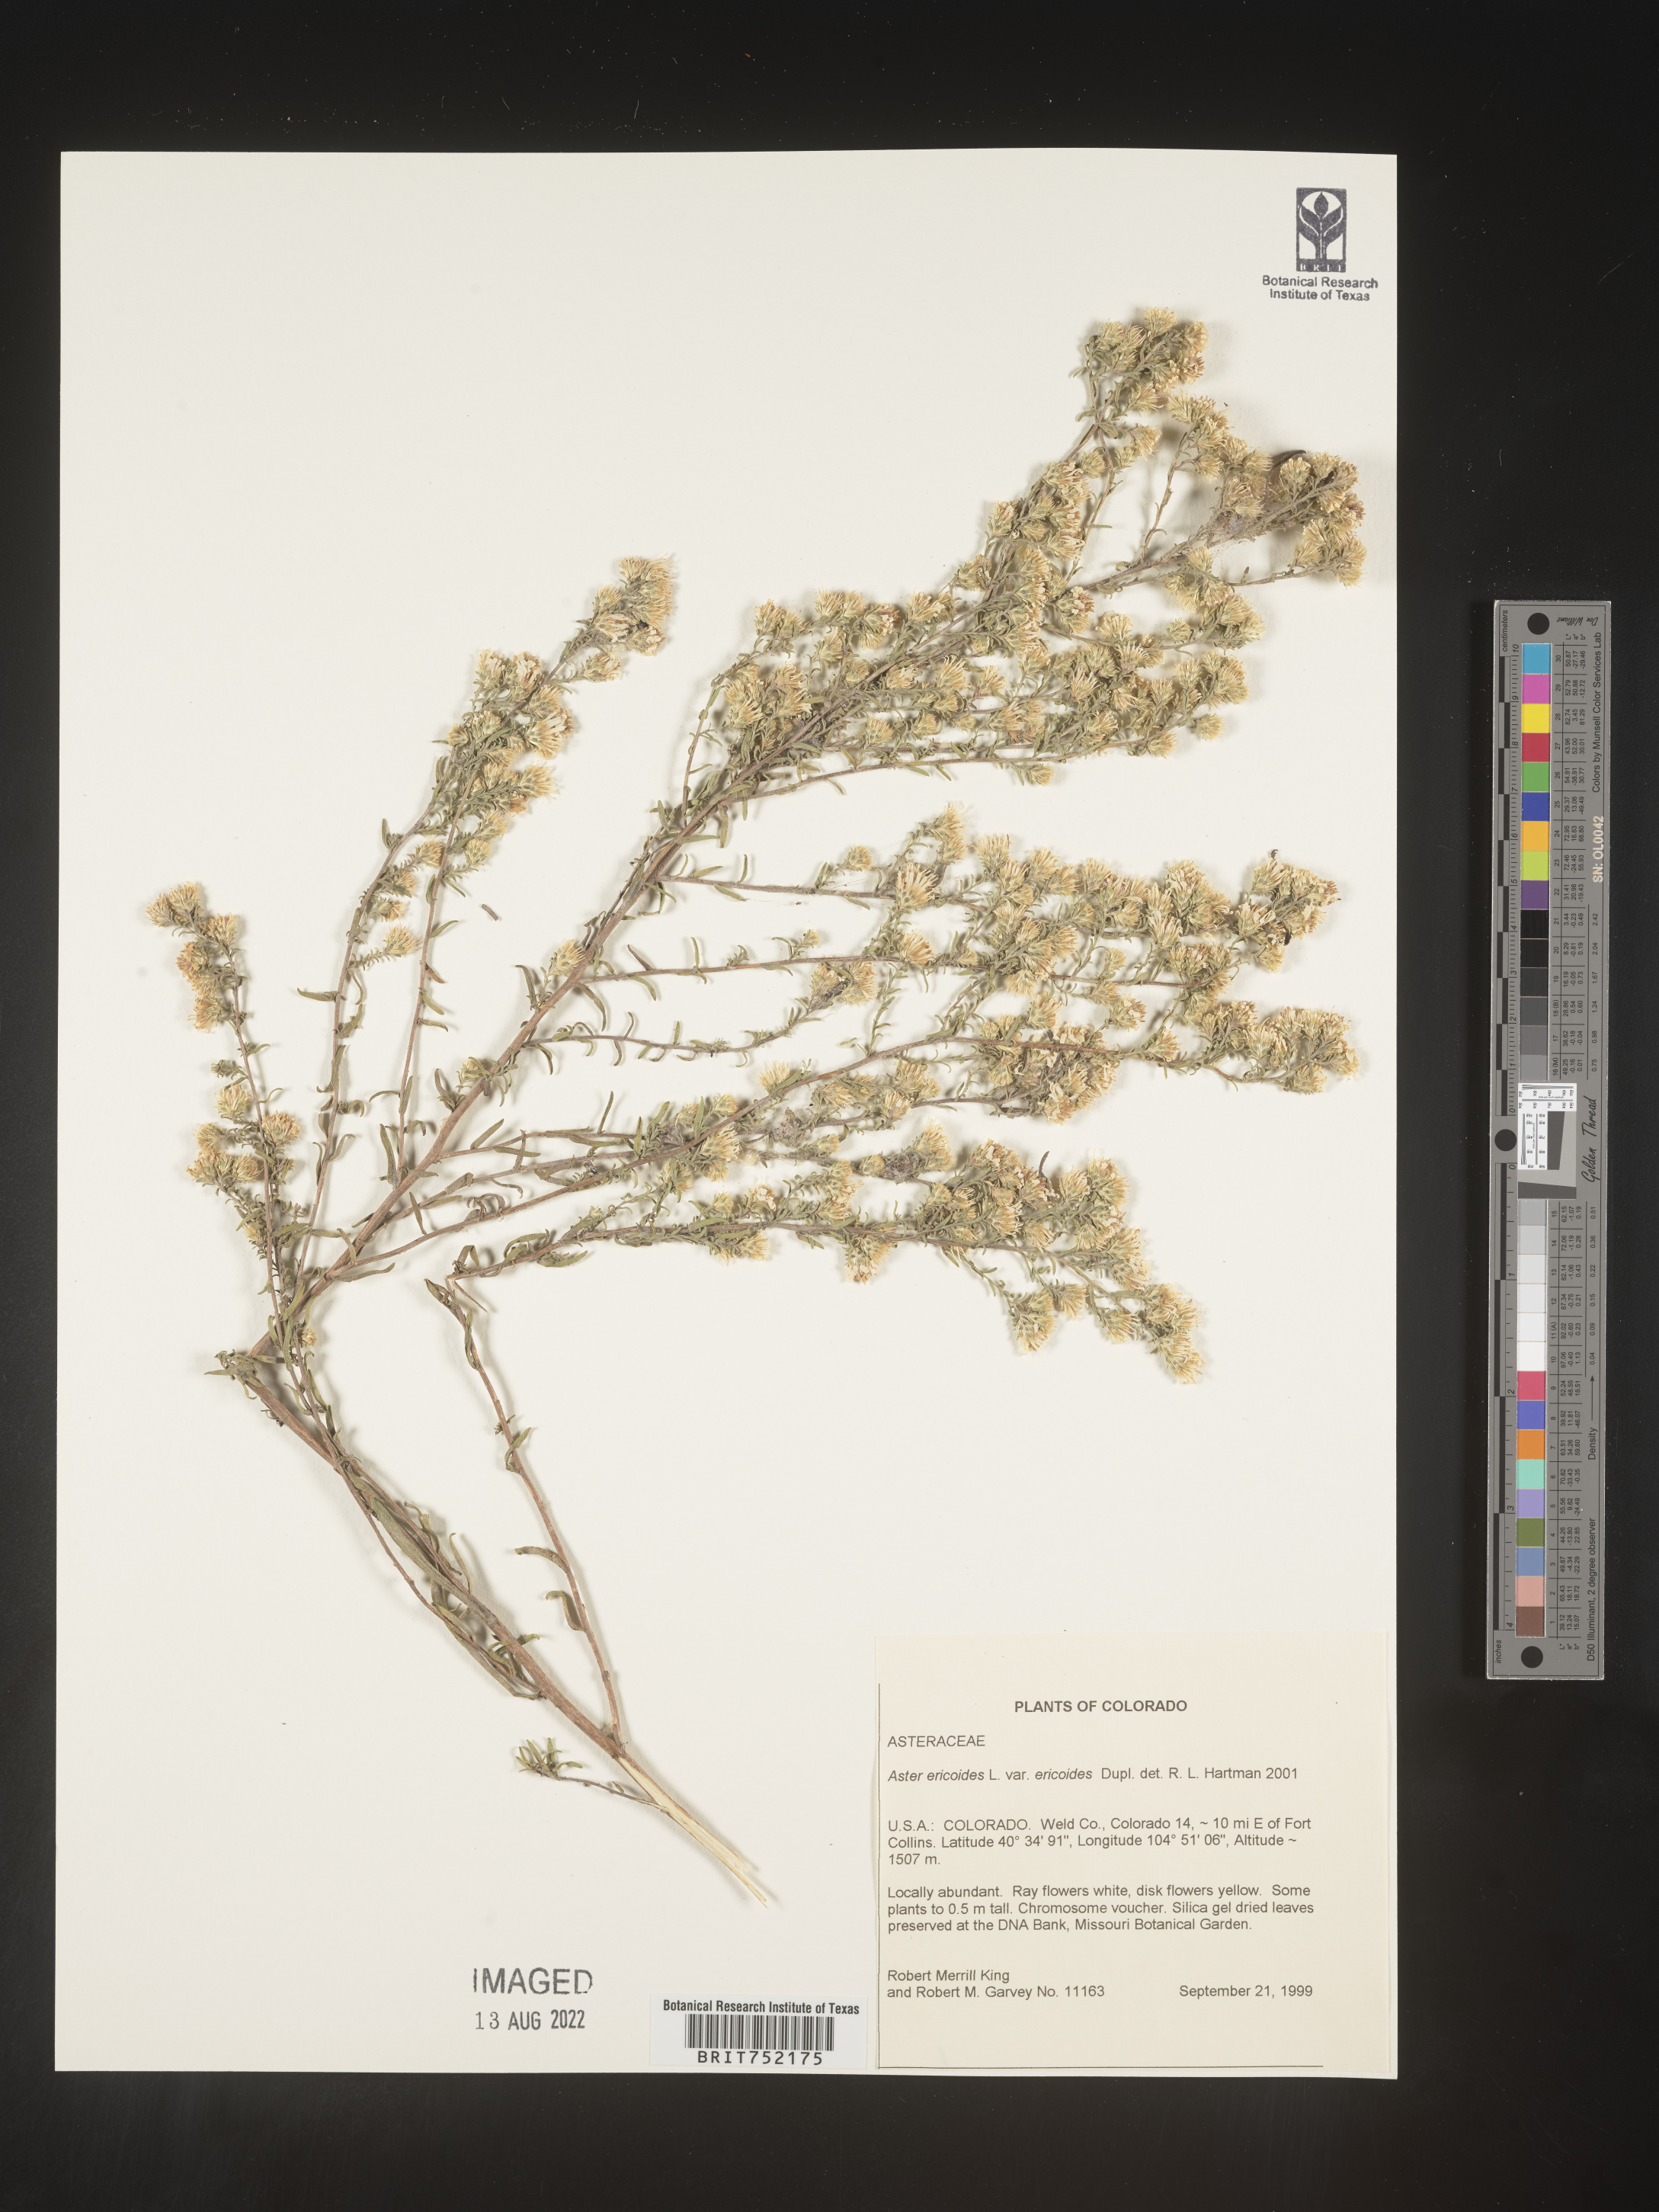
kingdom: Plantae
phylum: Tracheophyta
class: Magnoliopsida
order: Asterales
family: Asteraceae
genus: Symphyotrichum
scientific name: Symphyotrichum ericoides
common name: Heath aster
